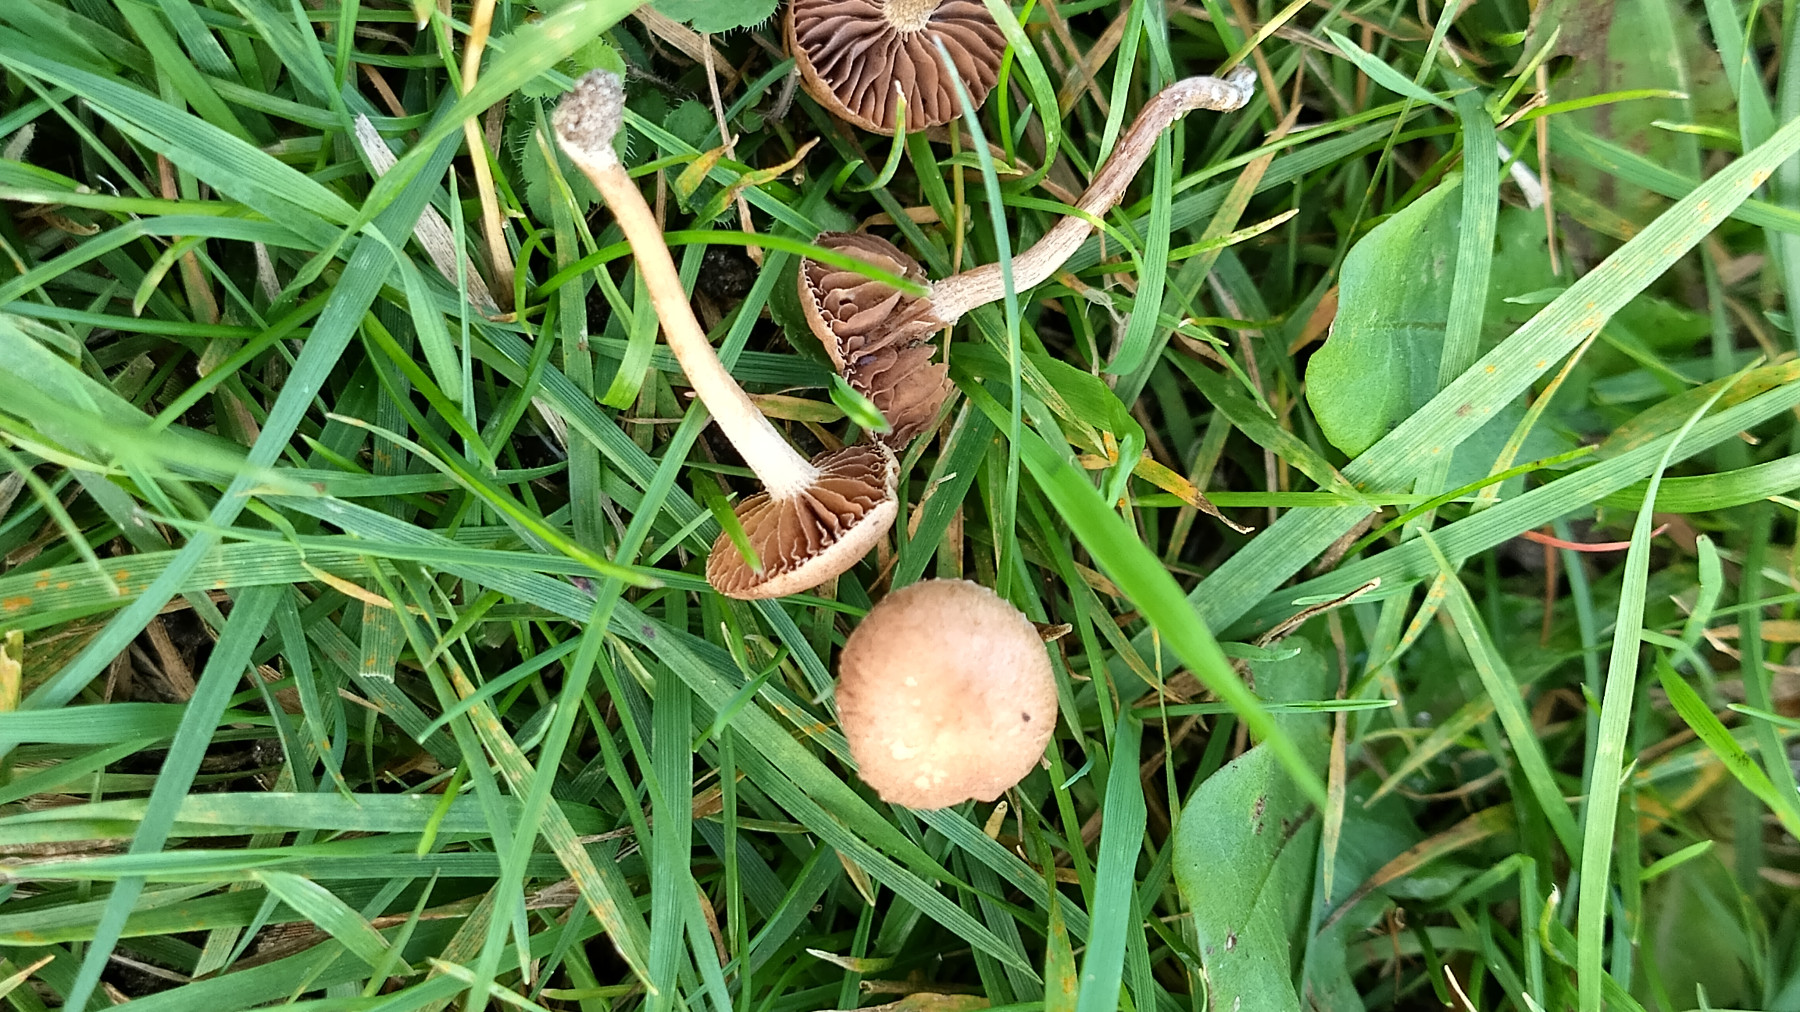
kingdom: Fungi
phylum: Basidiomycota
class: Agaricomycetes
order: Agaricales
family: Bolbitiaceae
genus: Panaeolina
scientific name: Panaeolina foenisecii
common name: høslætsvamp
